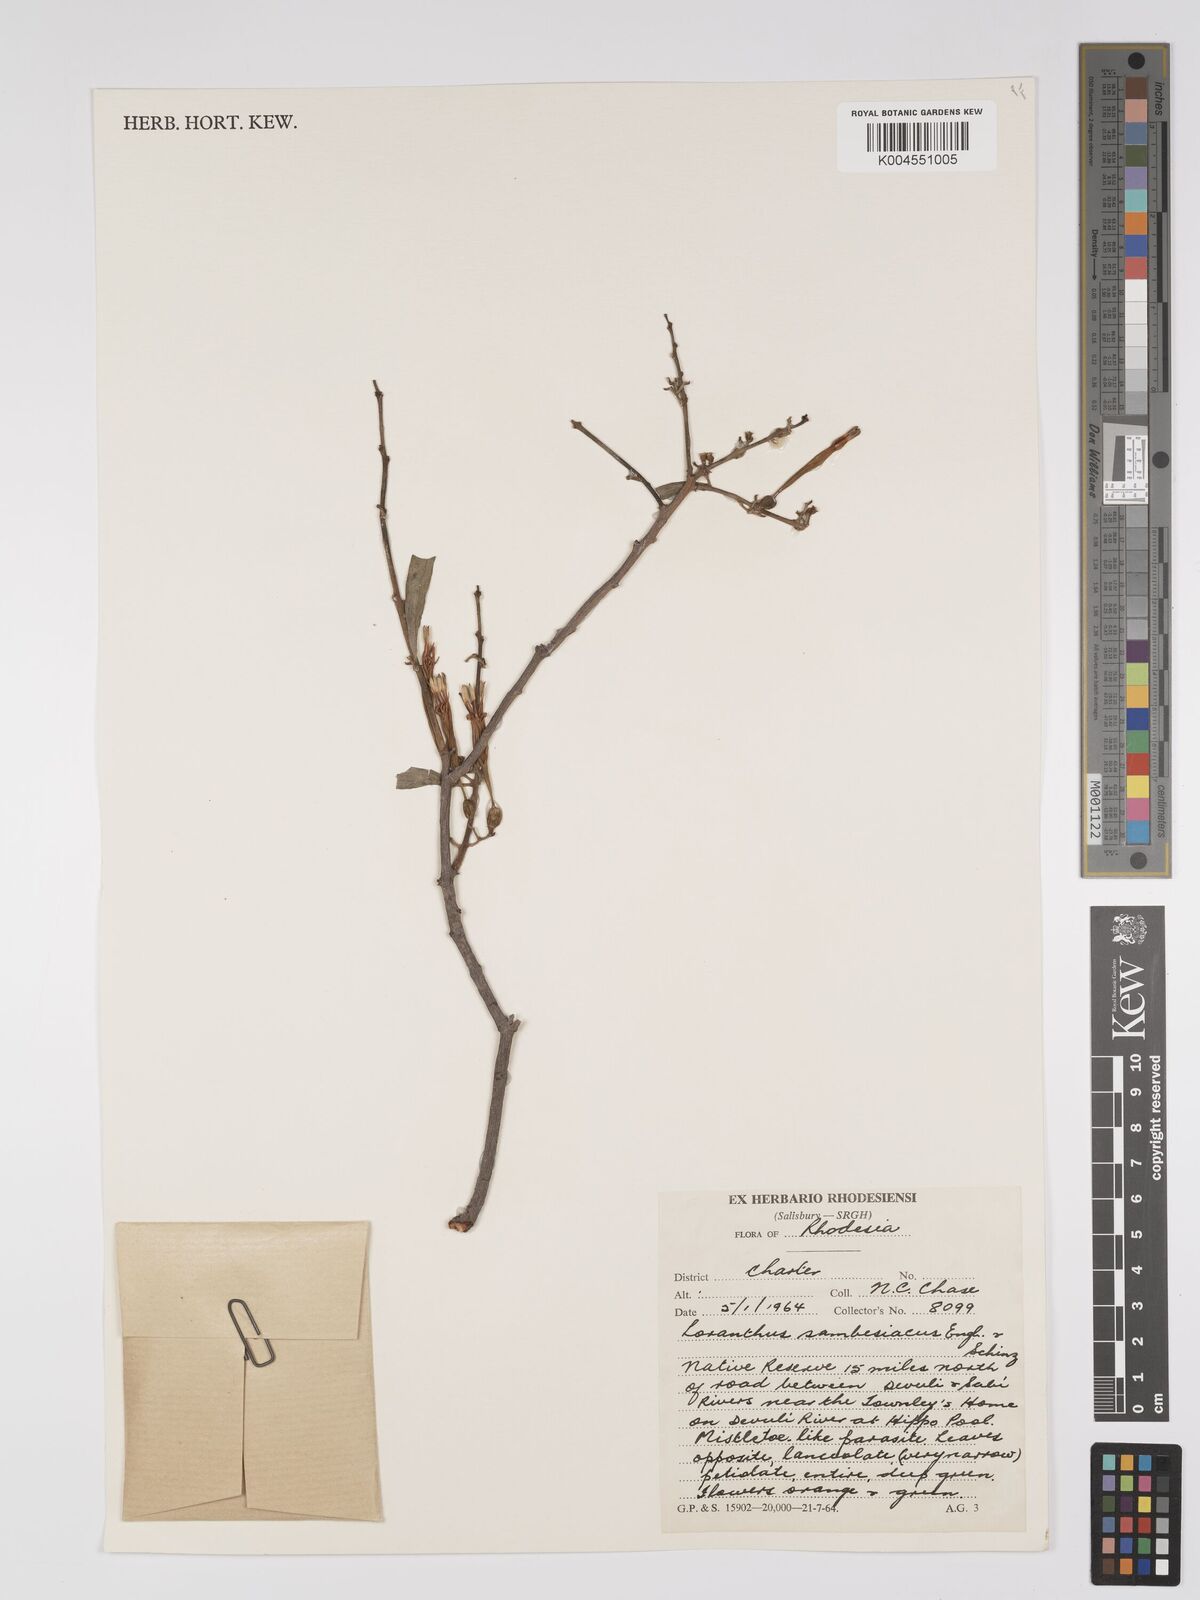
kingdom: Plantae
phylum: Tracheophyta
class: Magnoliopsida
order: Santalales
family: Loranthaceae
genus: Agelanthus
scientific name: Agelanthus sambesiacus
